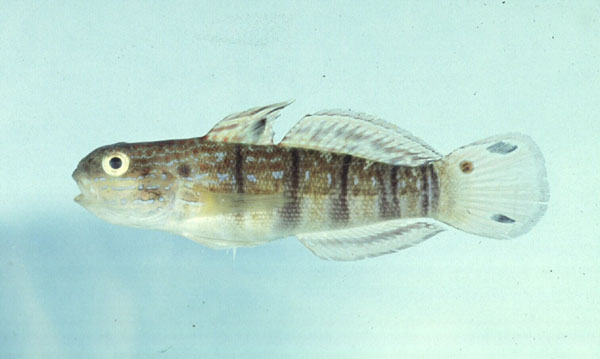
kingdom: Animalia
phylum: Chordata
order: Perciformes
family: Gobiidae
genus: Amblygobius
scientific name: Amblygobius phalaena
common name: Banded goby
